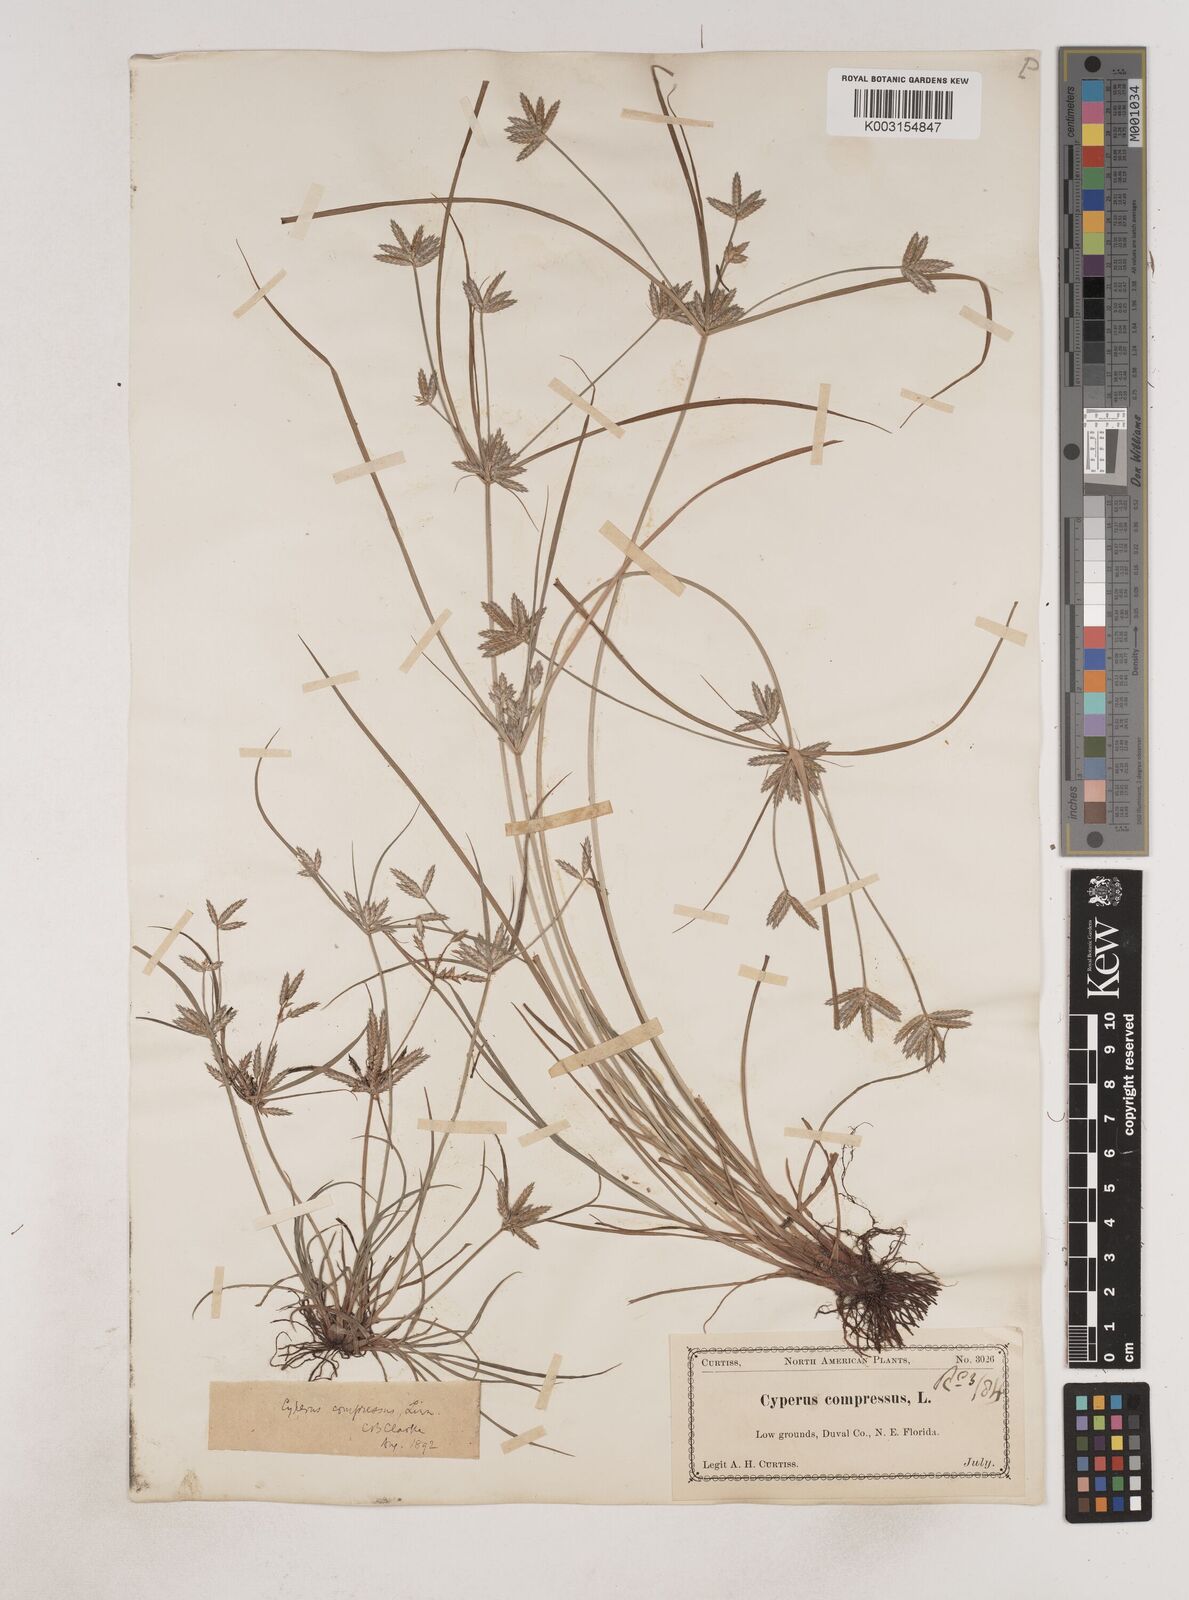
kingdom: Plantae
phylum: Tracheophyta
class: Liliopsida
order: Poales
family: Cyperaceae
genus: Cyperus
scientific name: Cyperus compressus
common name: Poorland flatsedge
